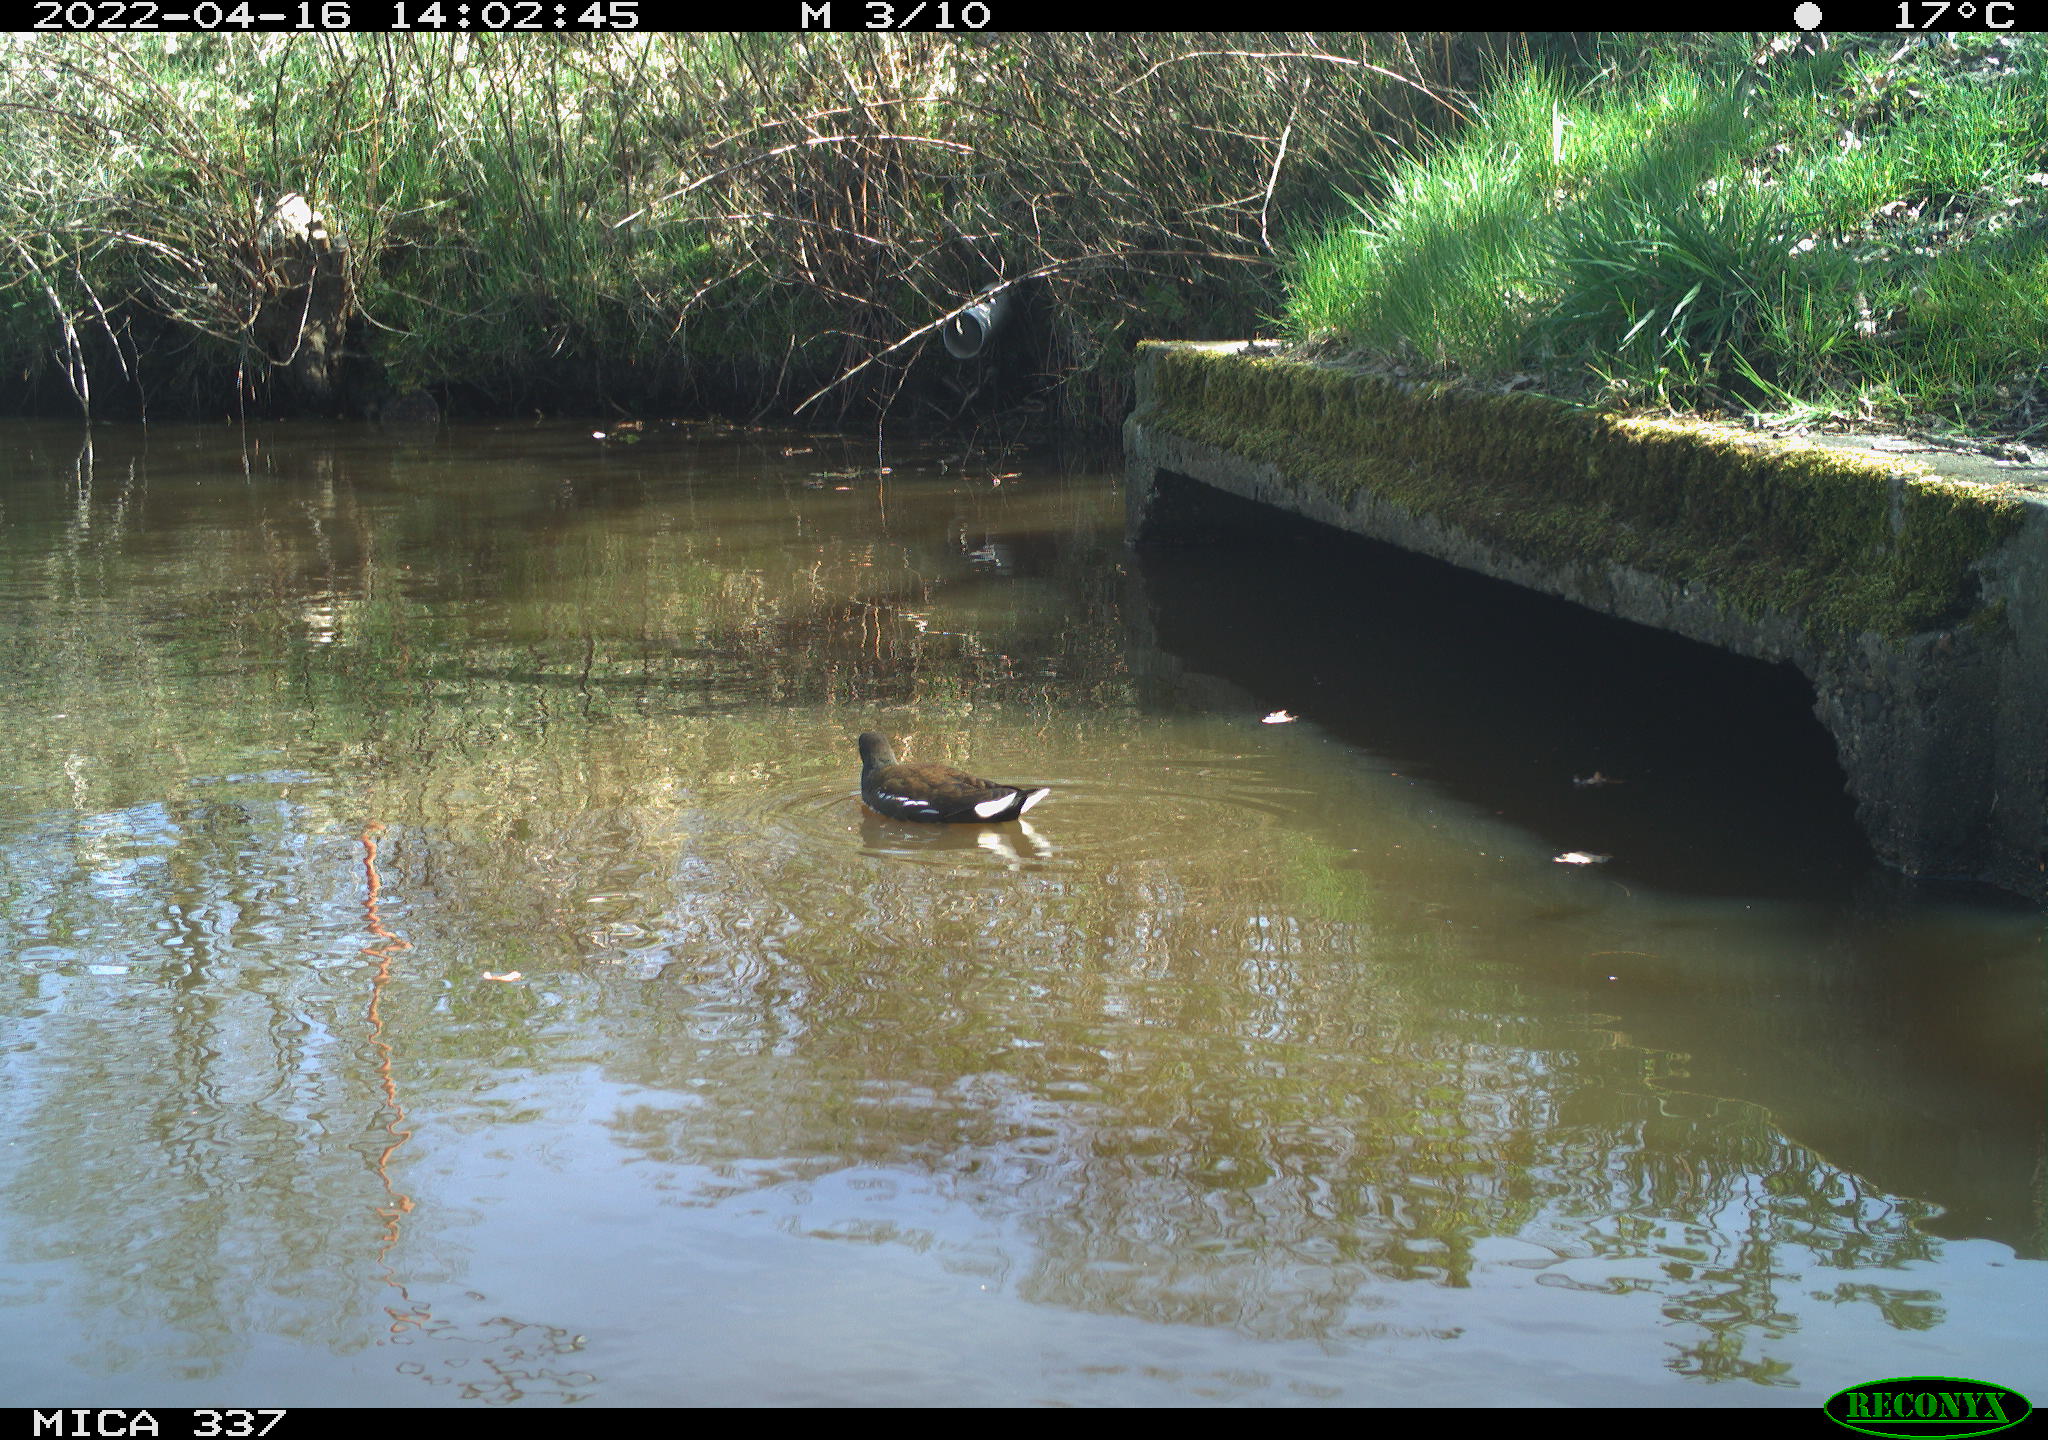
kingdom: Animalia
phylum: Chordata
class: Aves
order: Gruiformes
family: Rallidae
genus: Gallinula
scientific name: Gallinula chloropus
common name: Common moorhen
